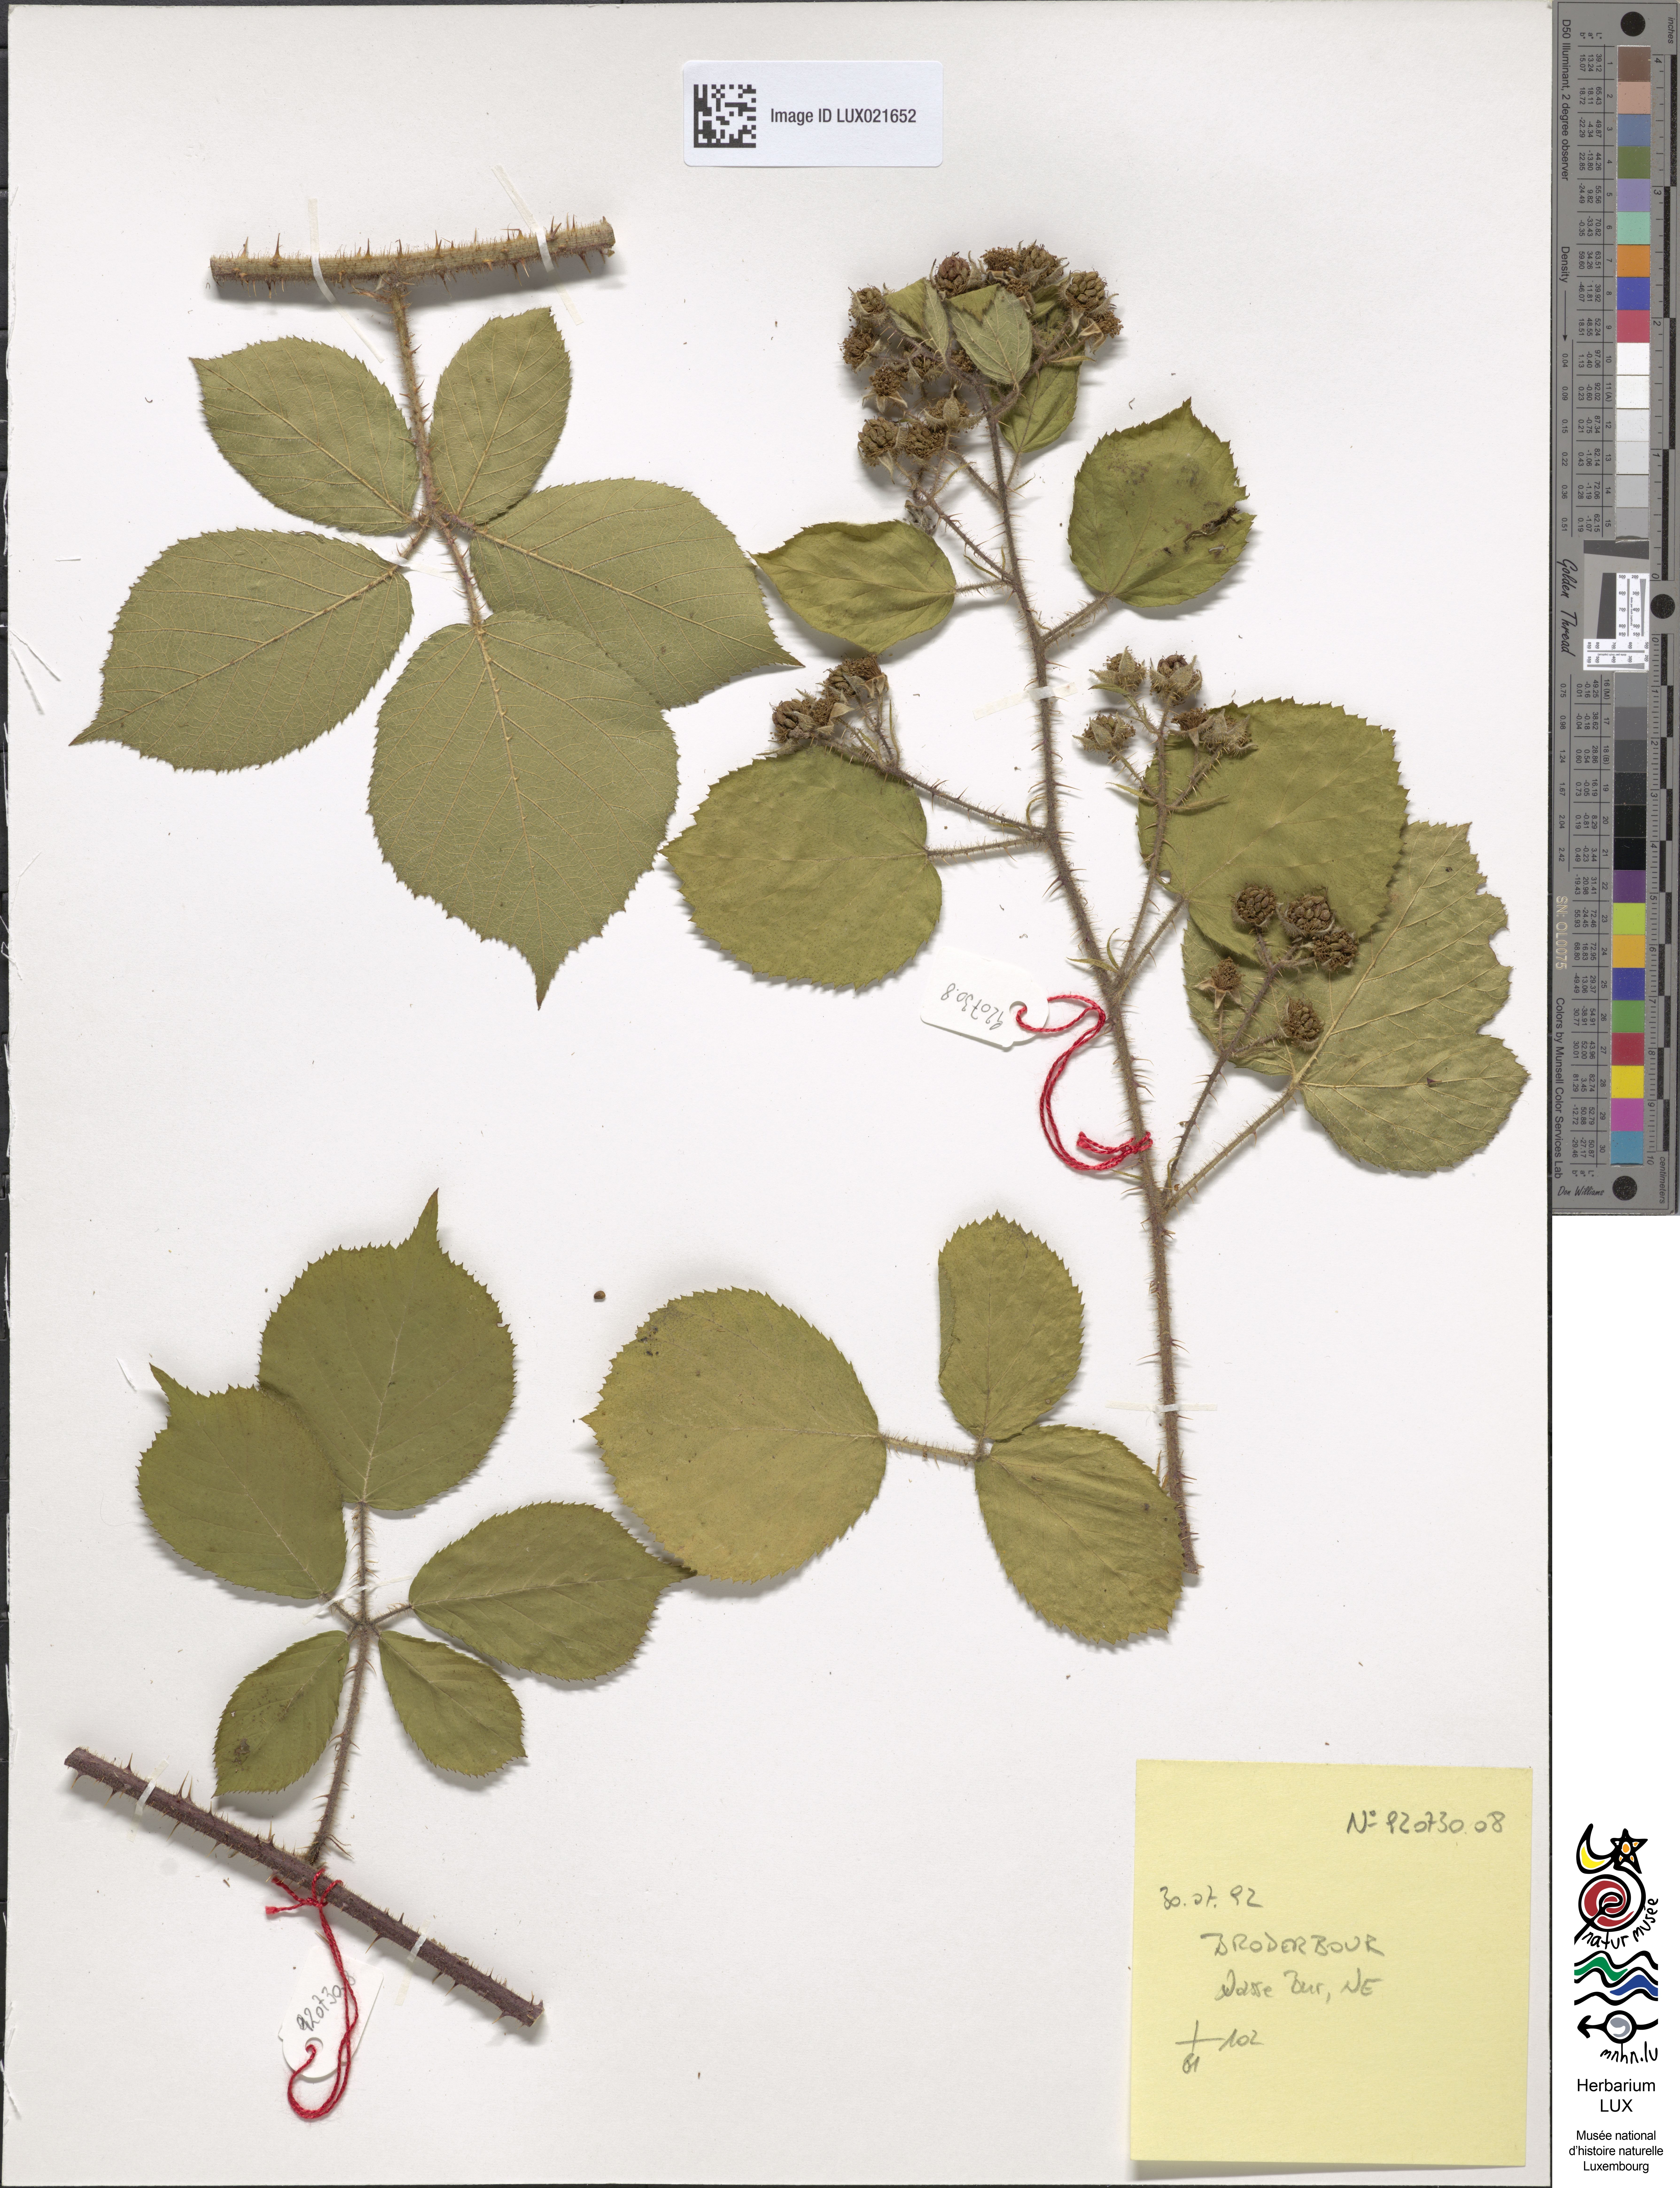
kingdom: Plantae
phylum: Tracheophyta
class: Magnoliopsida
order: Rosales
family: Rosaceae
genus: Rubus
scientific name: Rubus
